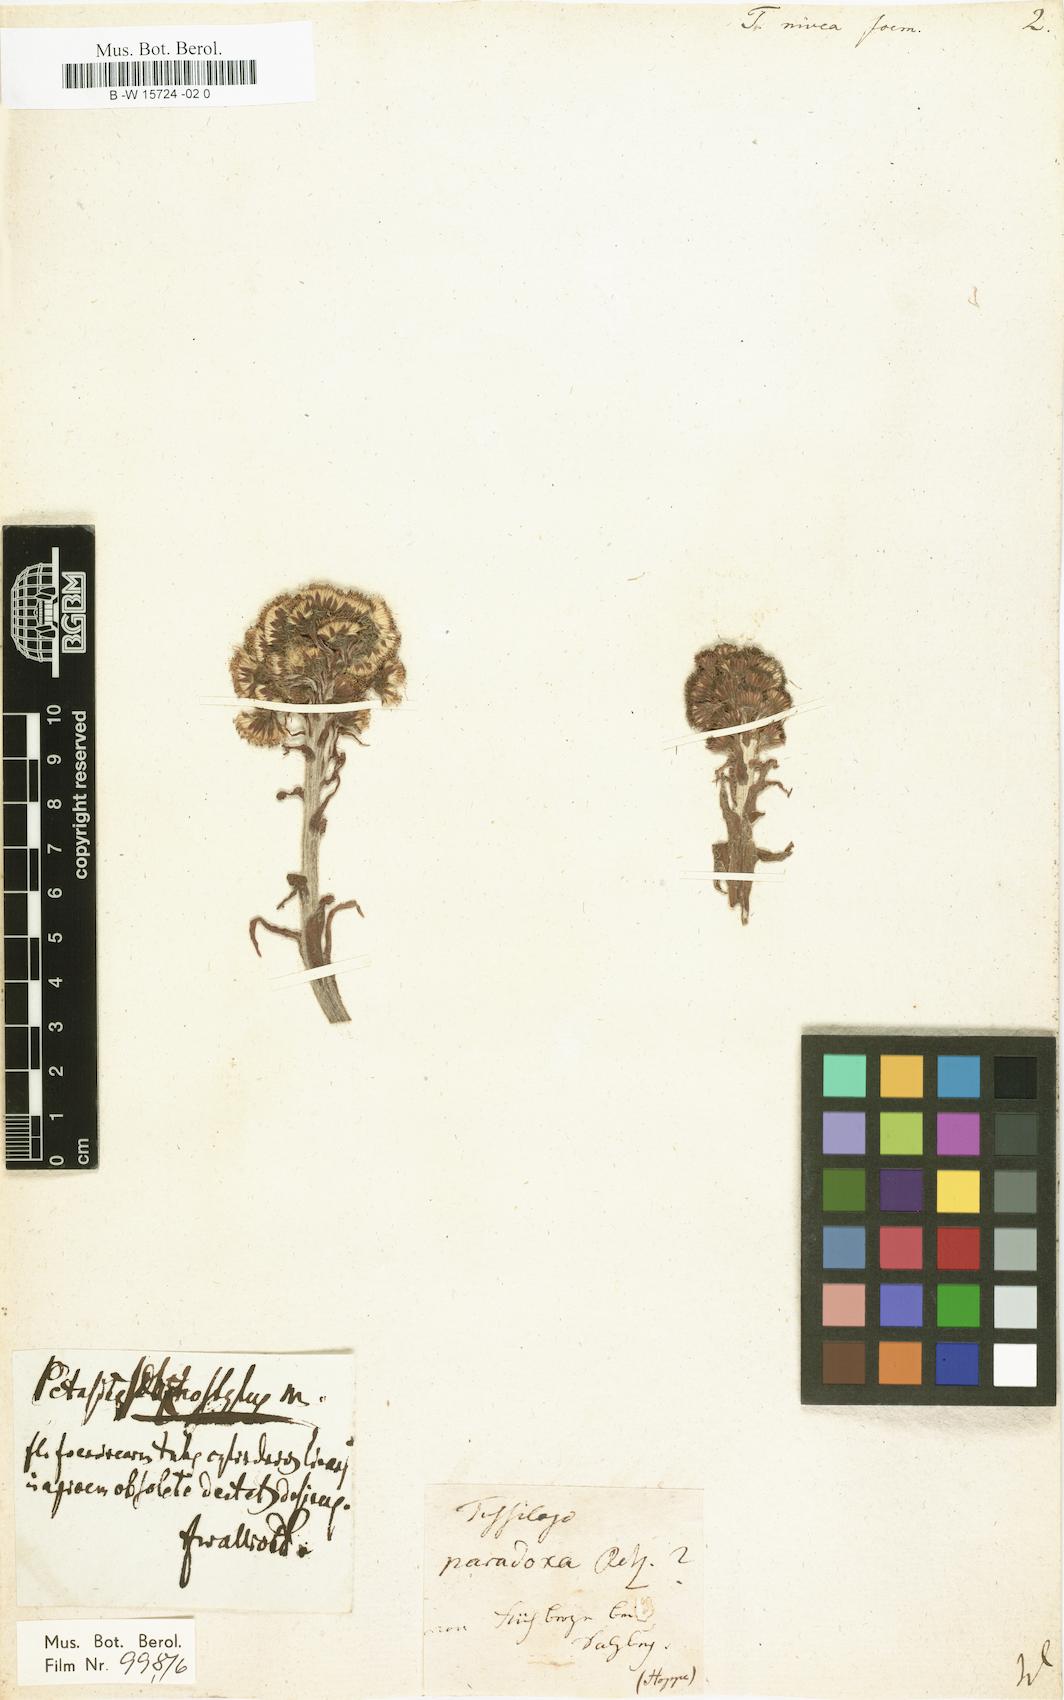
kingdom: Plantae
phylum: Tracheophyta
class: Magnoliopsida
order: Asterales
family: Asteraceae
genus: Petasites
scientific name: Petasites paradoxus
